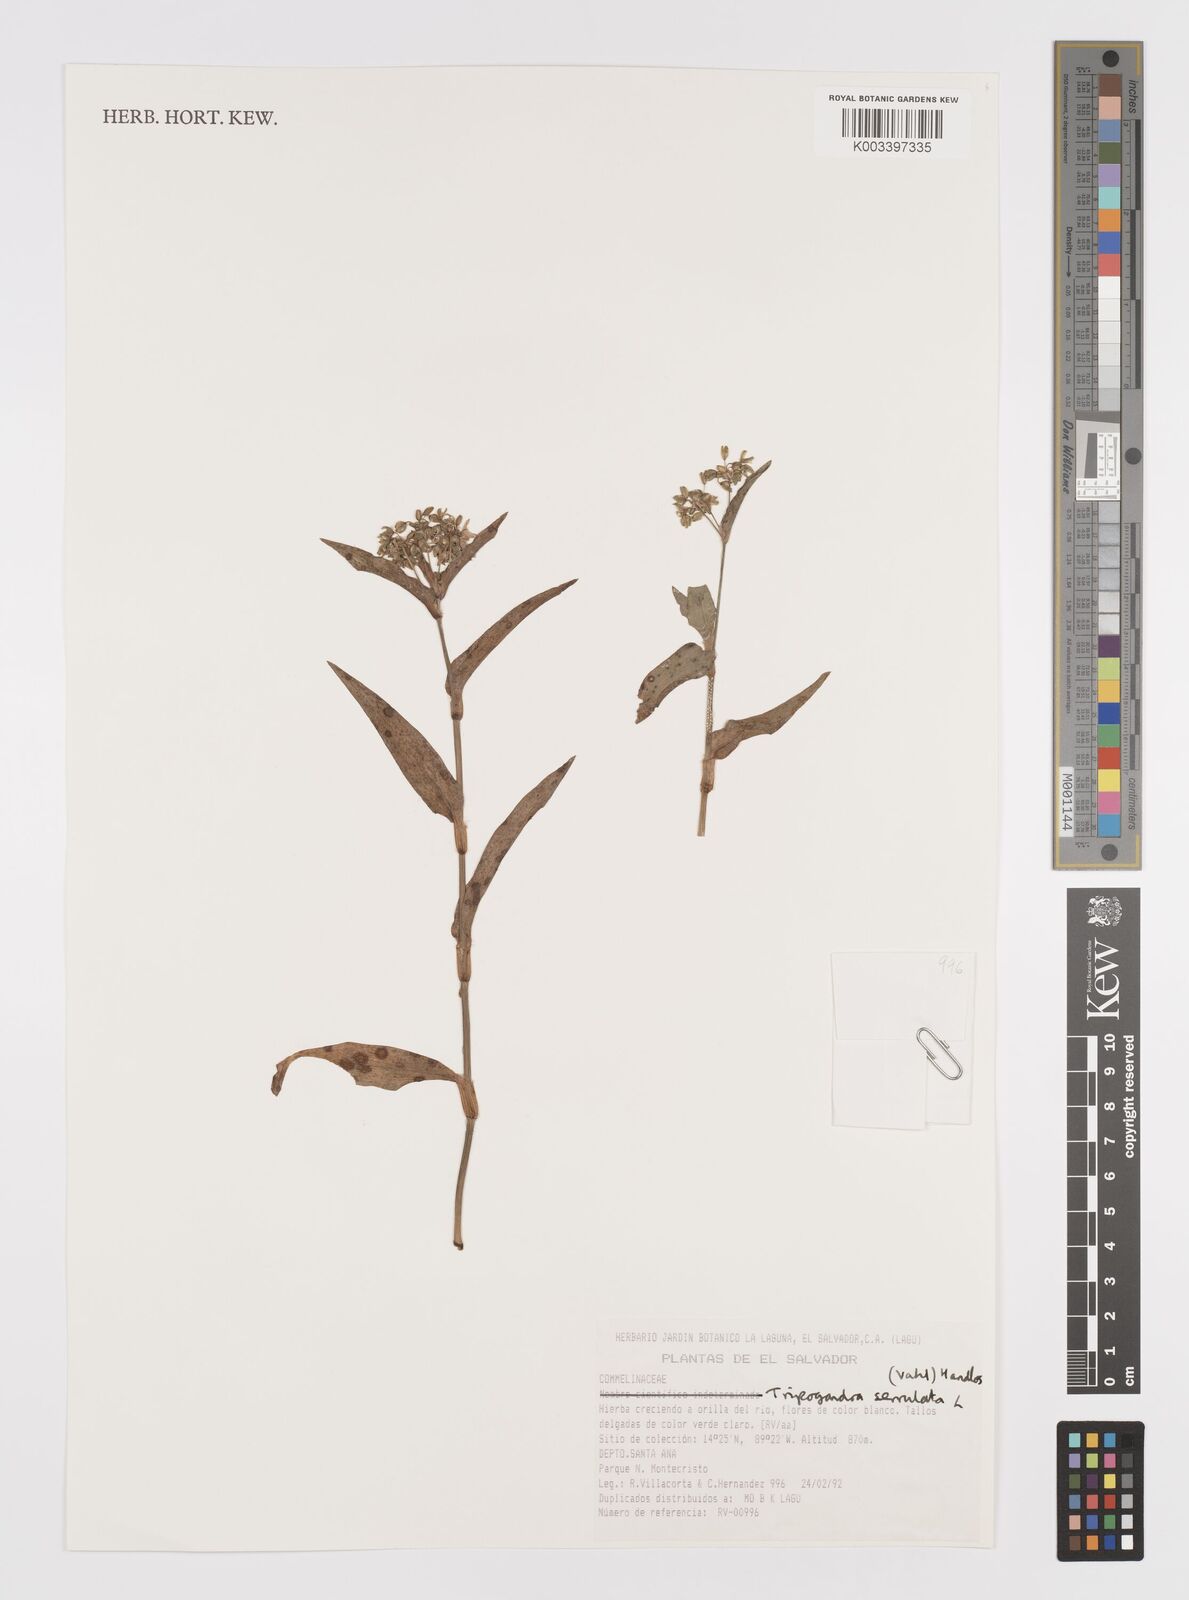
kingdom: Plantae
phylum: Tracheophyta
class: Liliopsida
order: Commelinales
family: Commelinaceae
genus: Callisia
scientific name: Callisia serrulata
